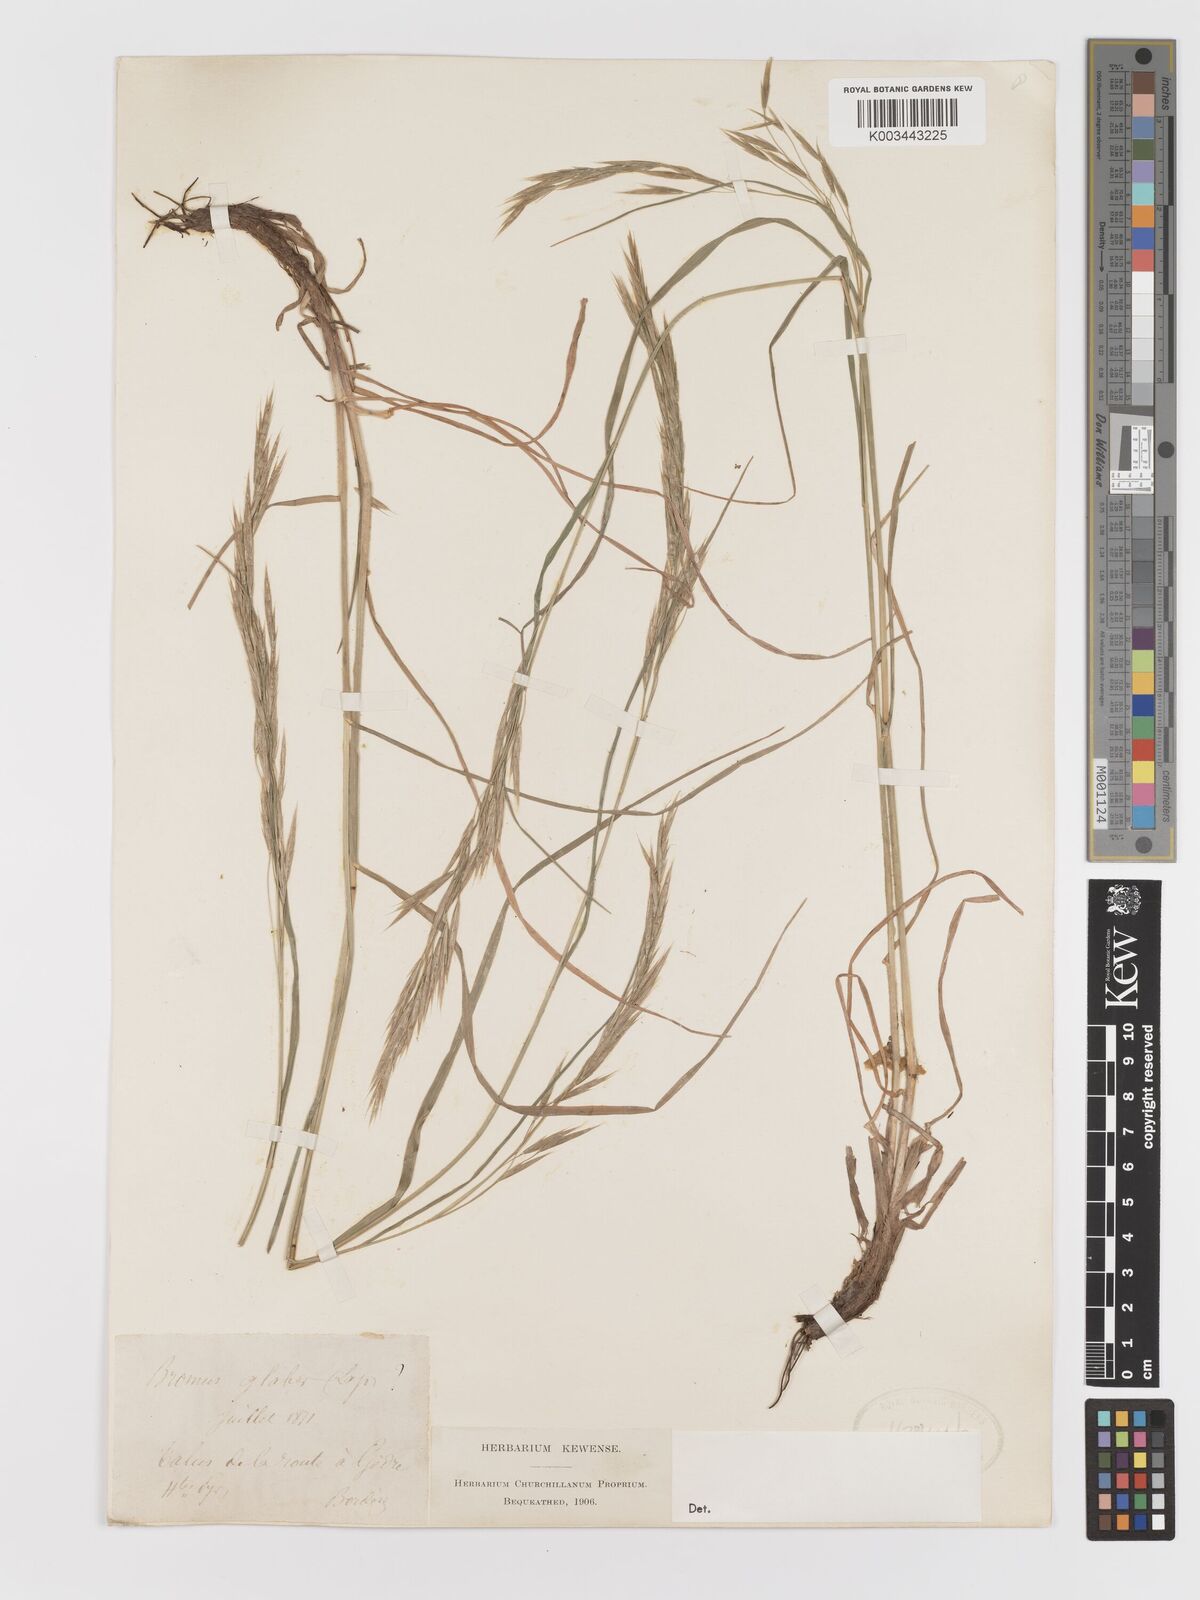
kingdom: Plantae
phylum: Tracheophyta
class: Liliopsida
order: Poales
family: Poaceae
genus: Bromus
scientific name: Bromus
